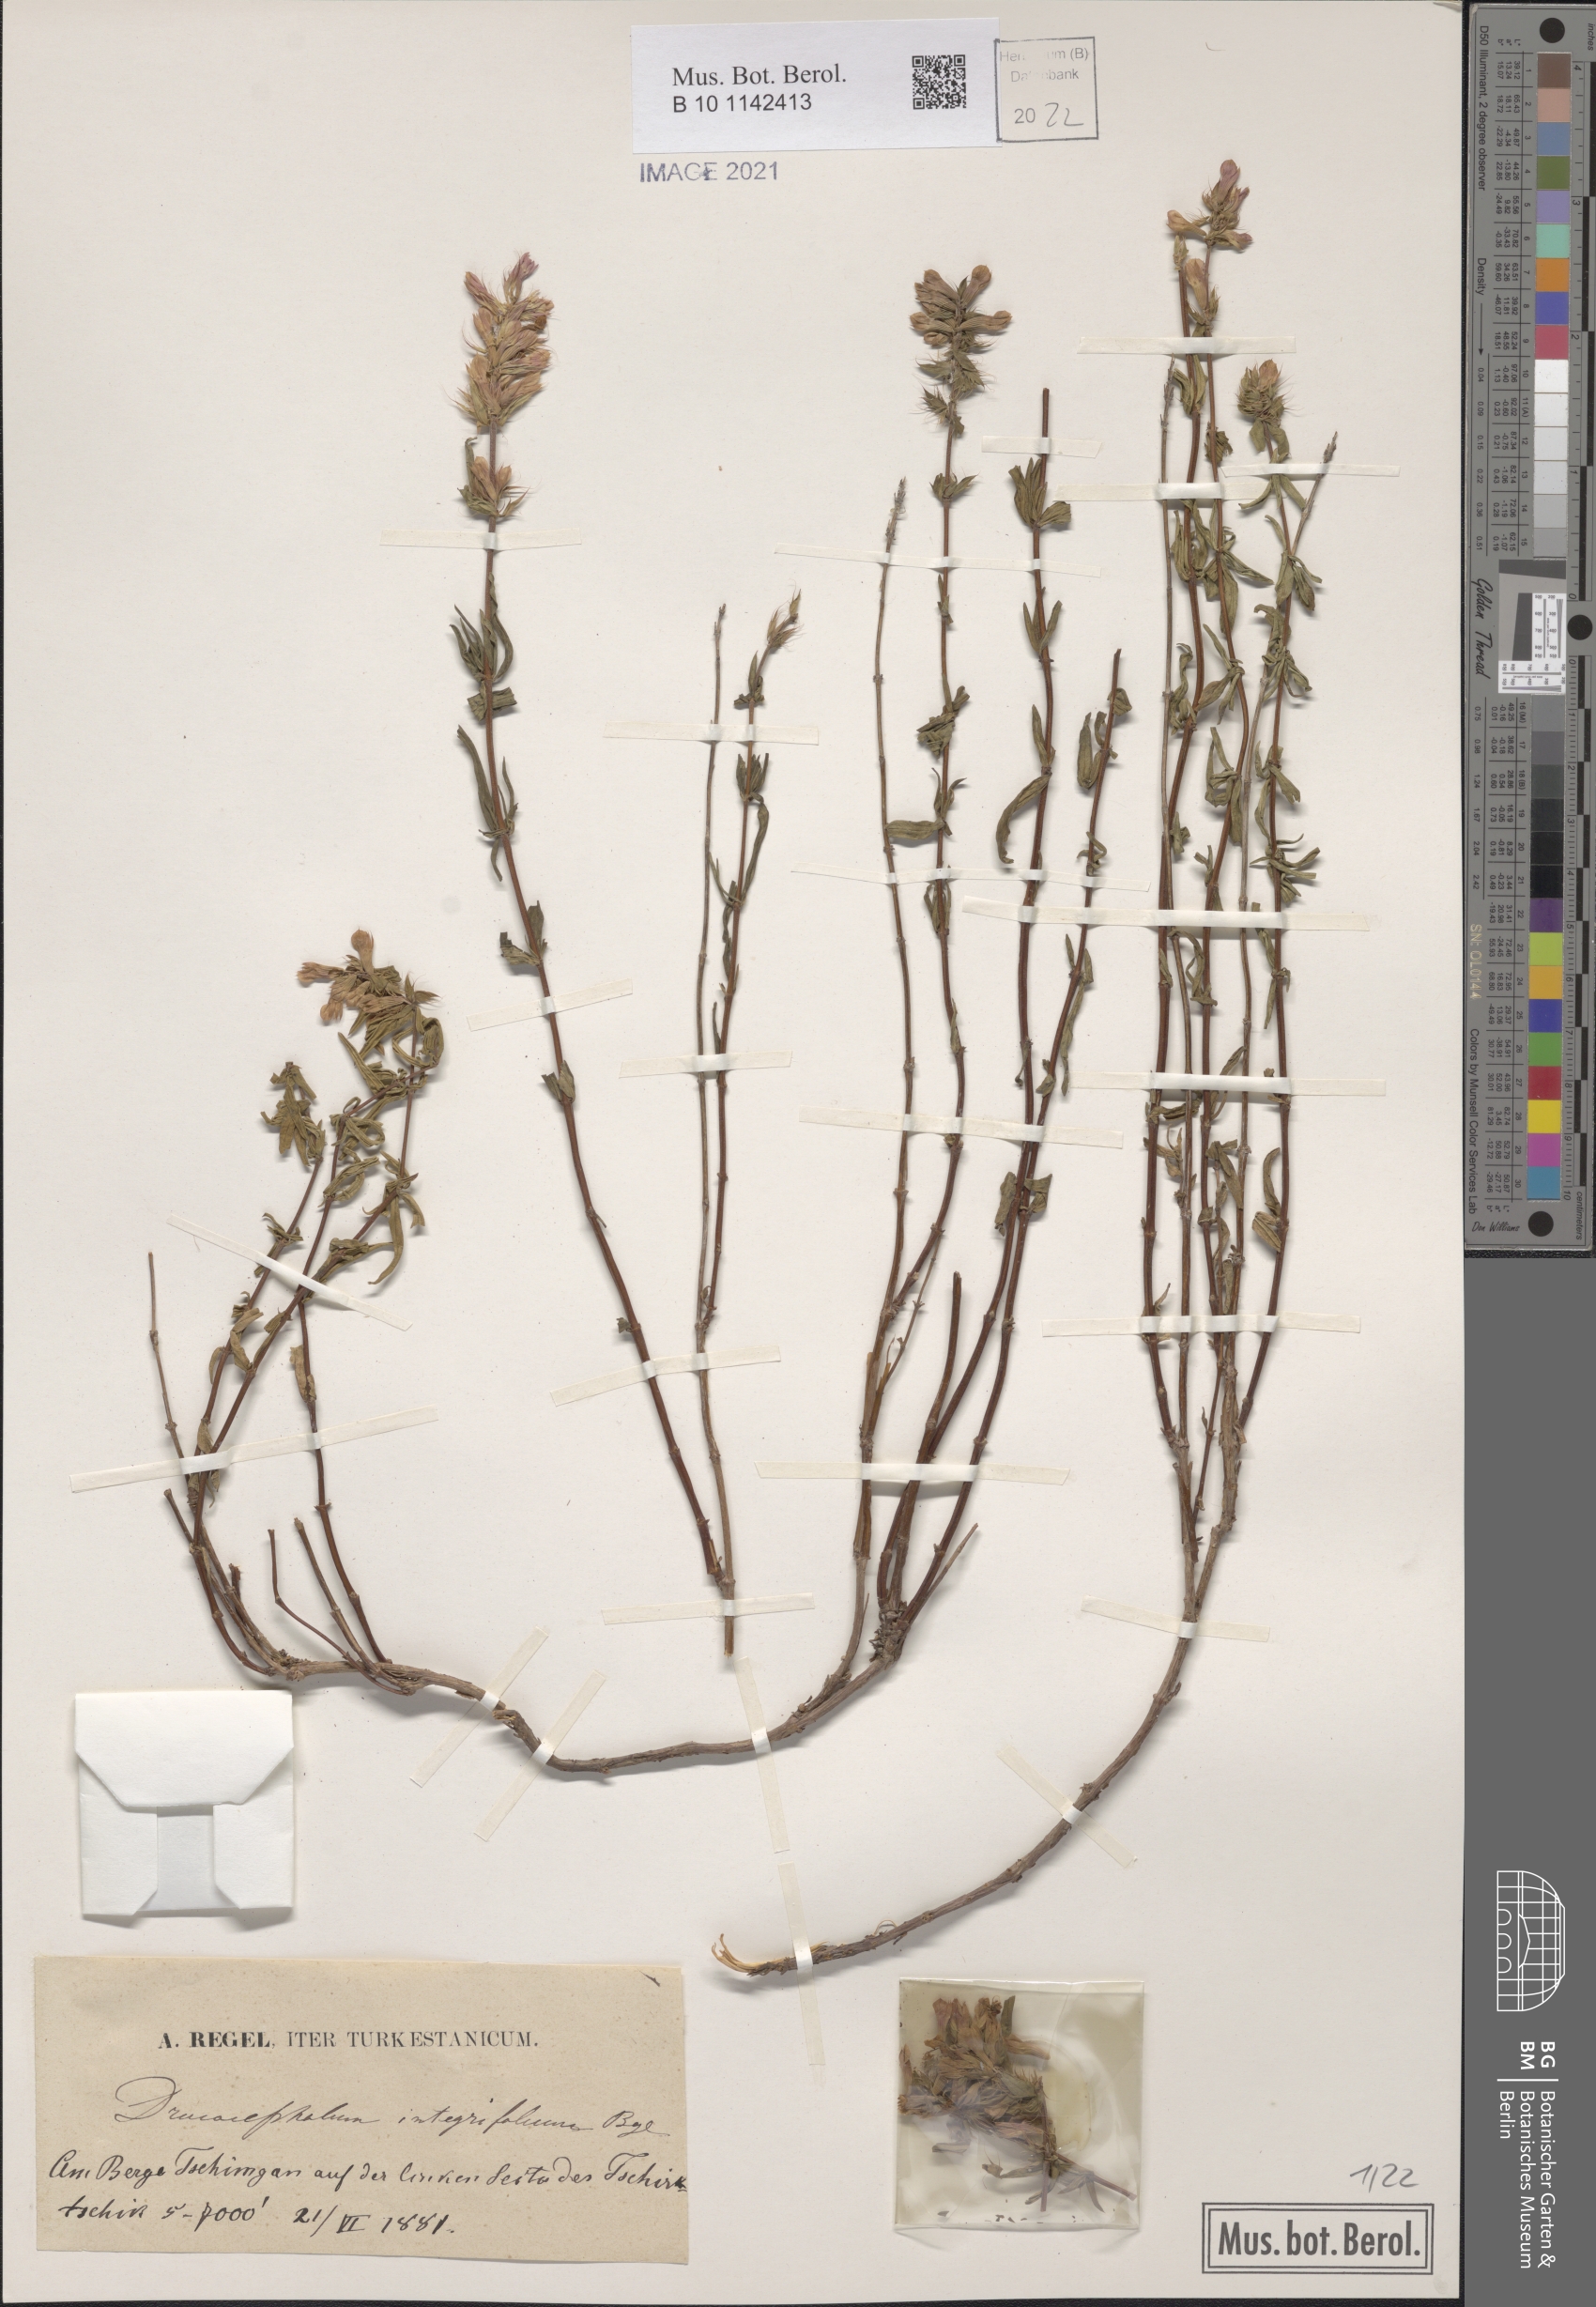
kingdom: Plantae
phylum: Tracheophyta
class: Magnoliopsida
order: Lamiales
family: Lamiaceae
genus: Dracocephalum
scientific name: Dracocephalum integrifolium
